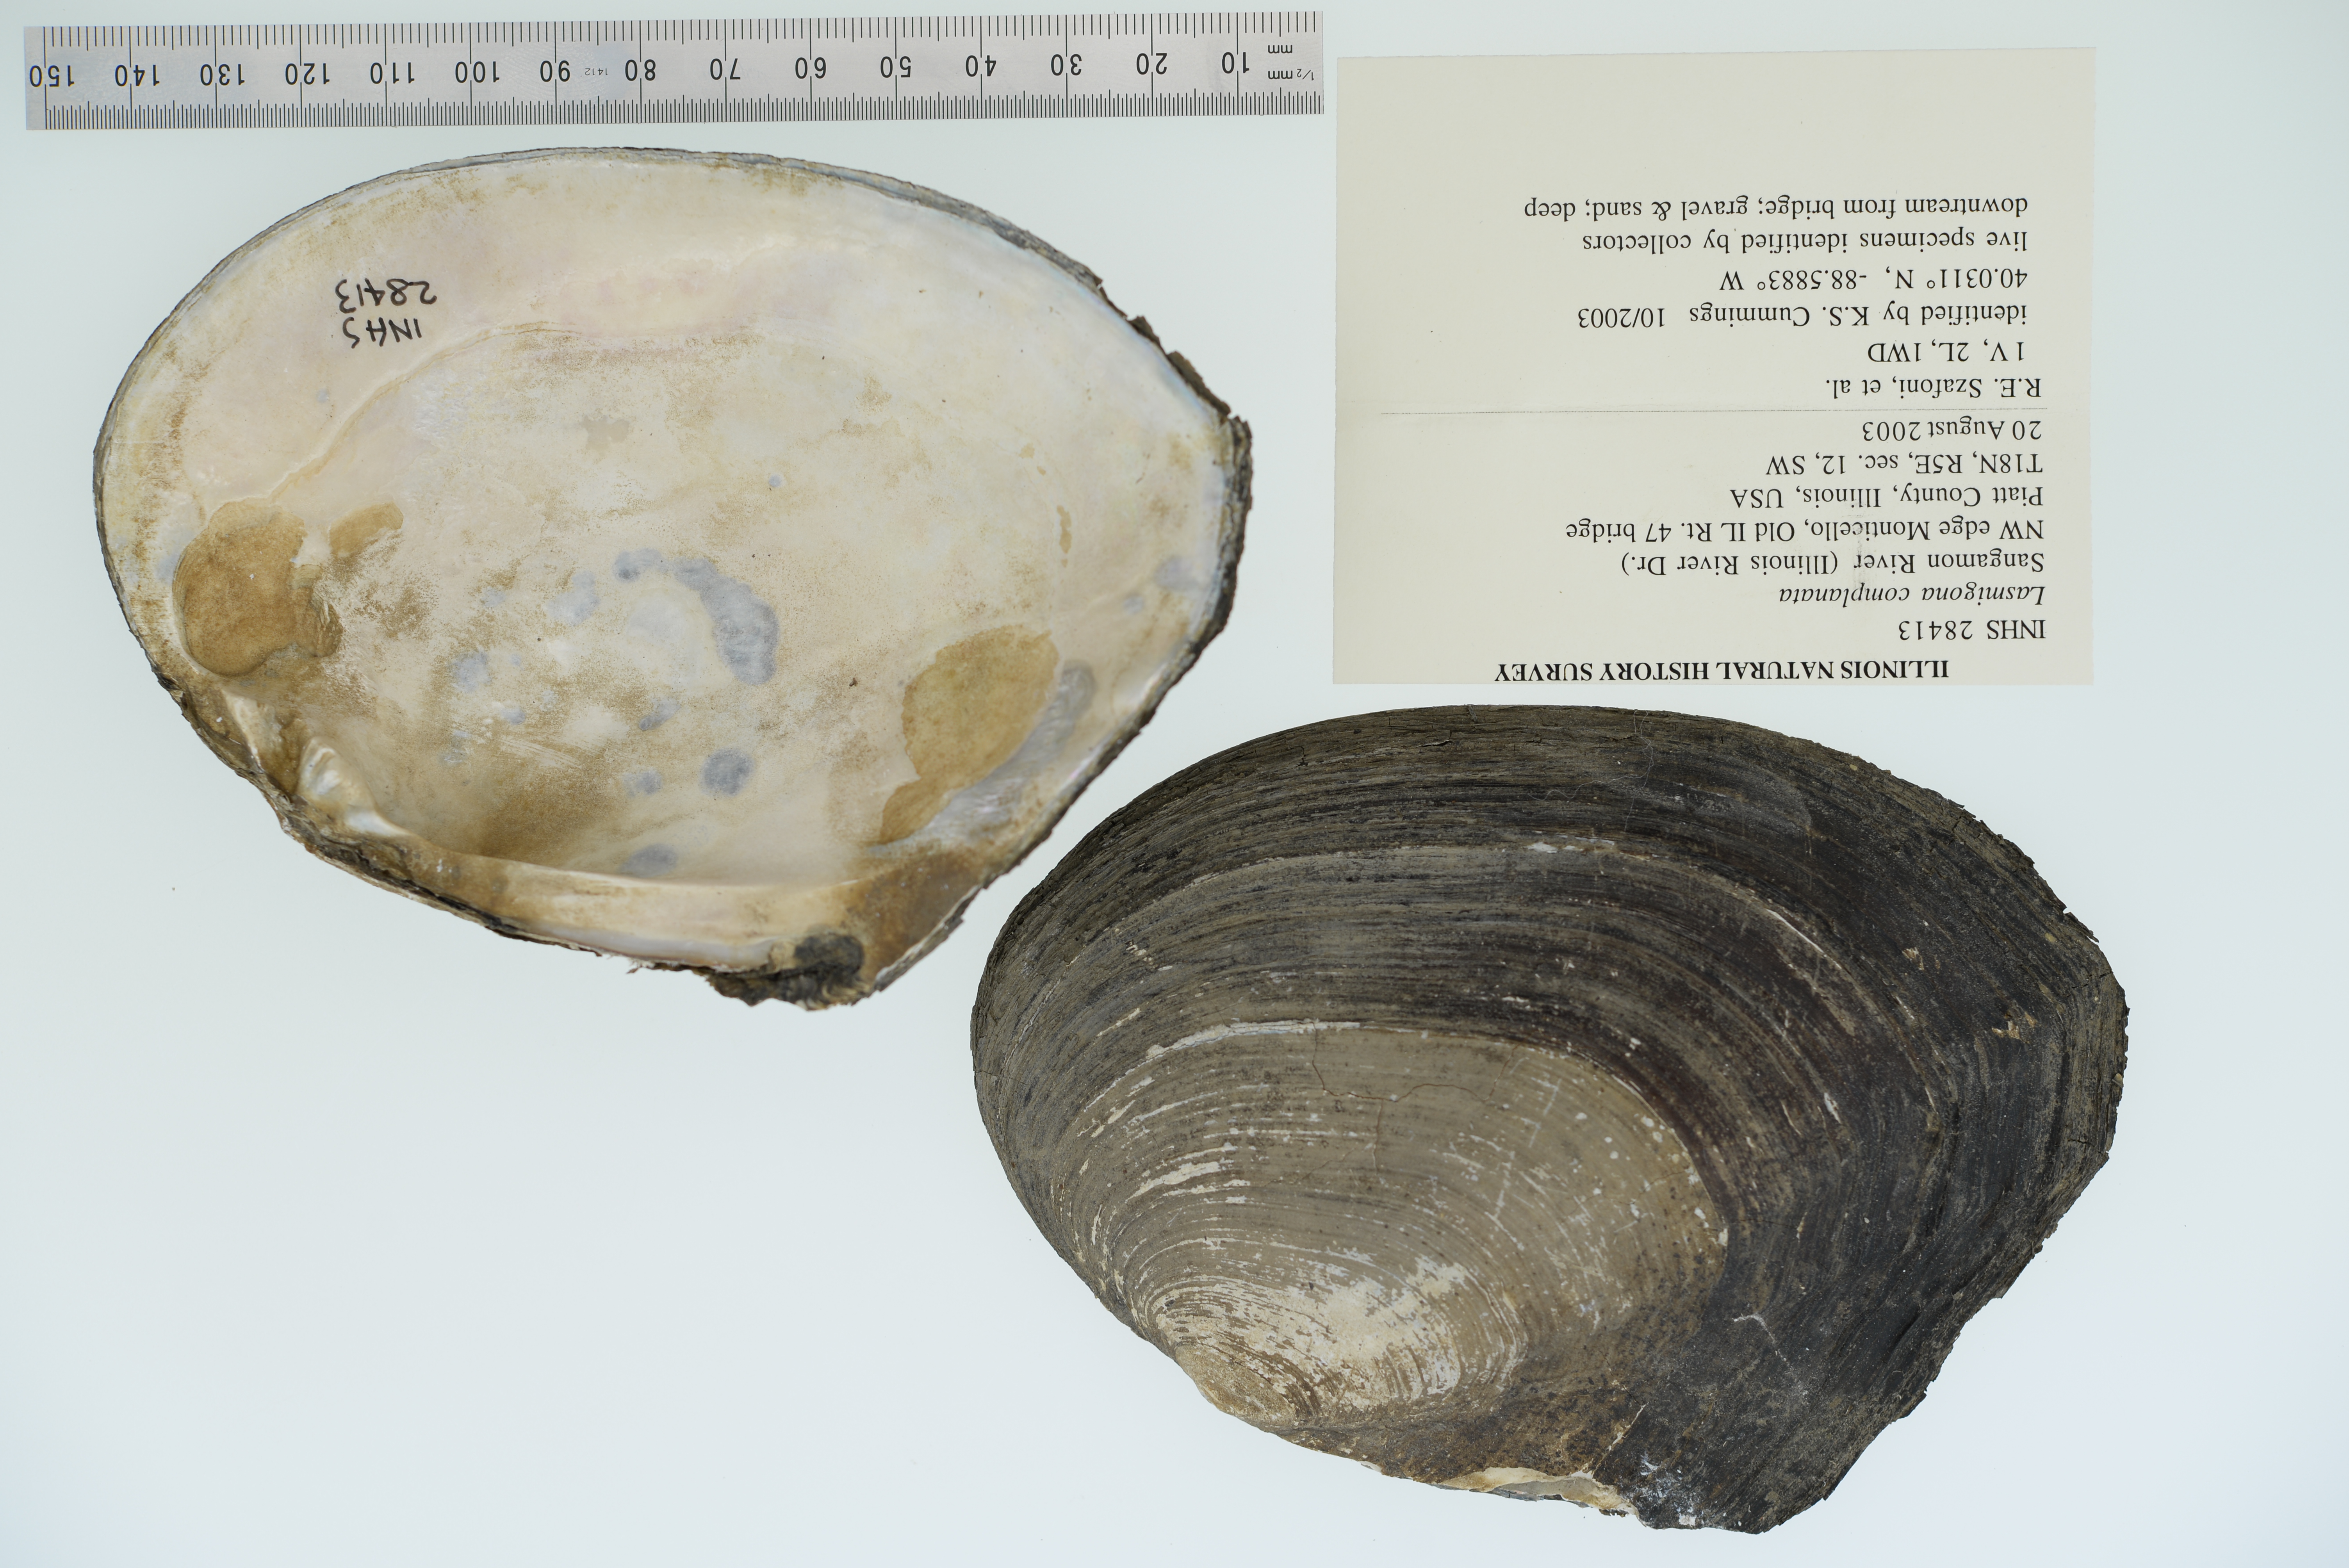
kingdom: Animalia
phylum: Mollusca
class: Bivalvia
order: Unionida
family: Unionidae
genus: Lasmigona
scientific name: Lasmigona complanata
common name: White heelsplitter
